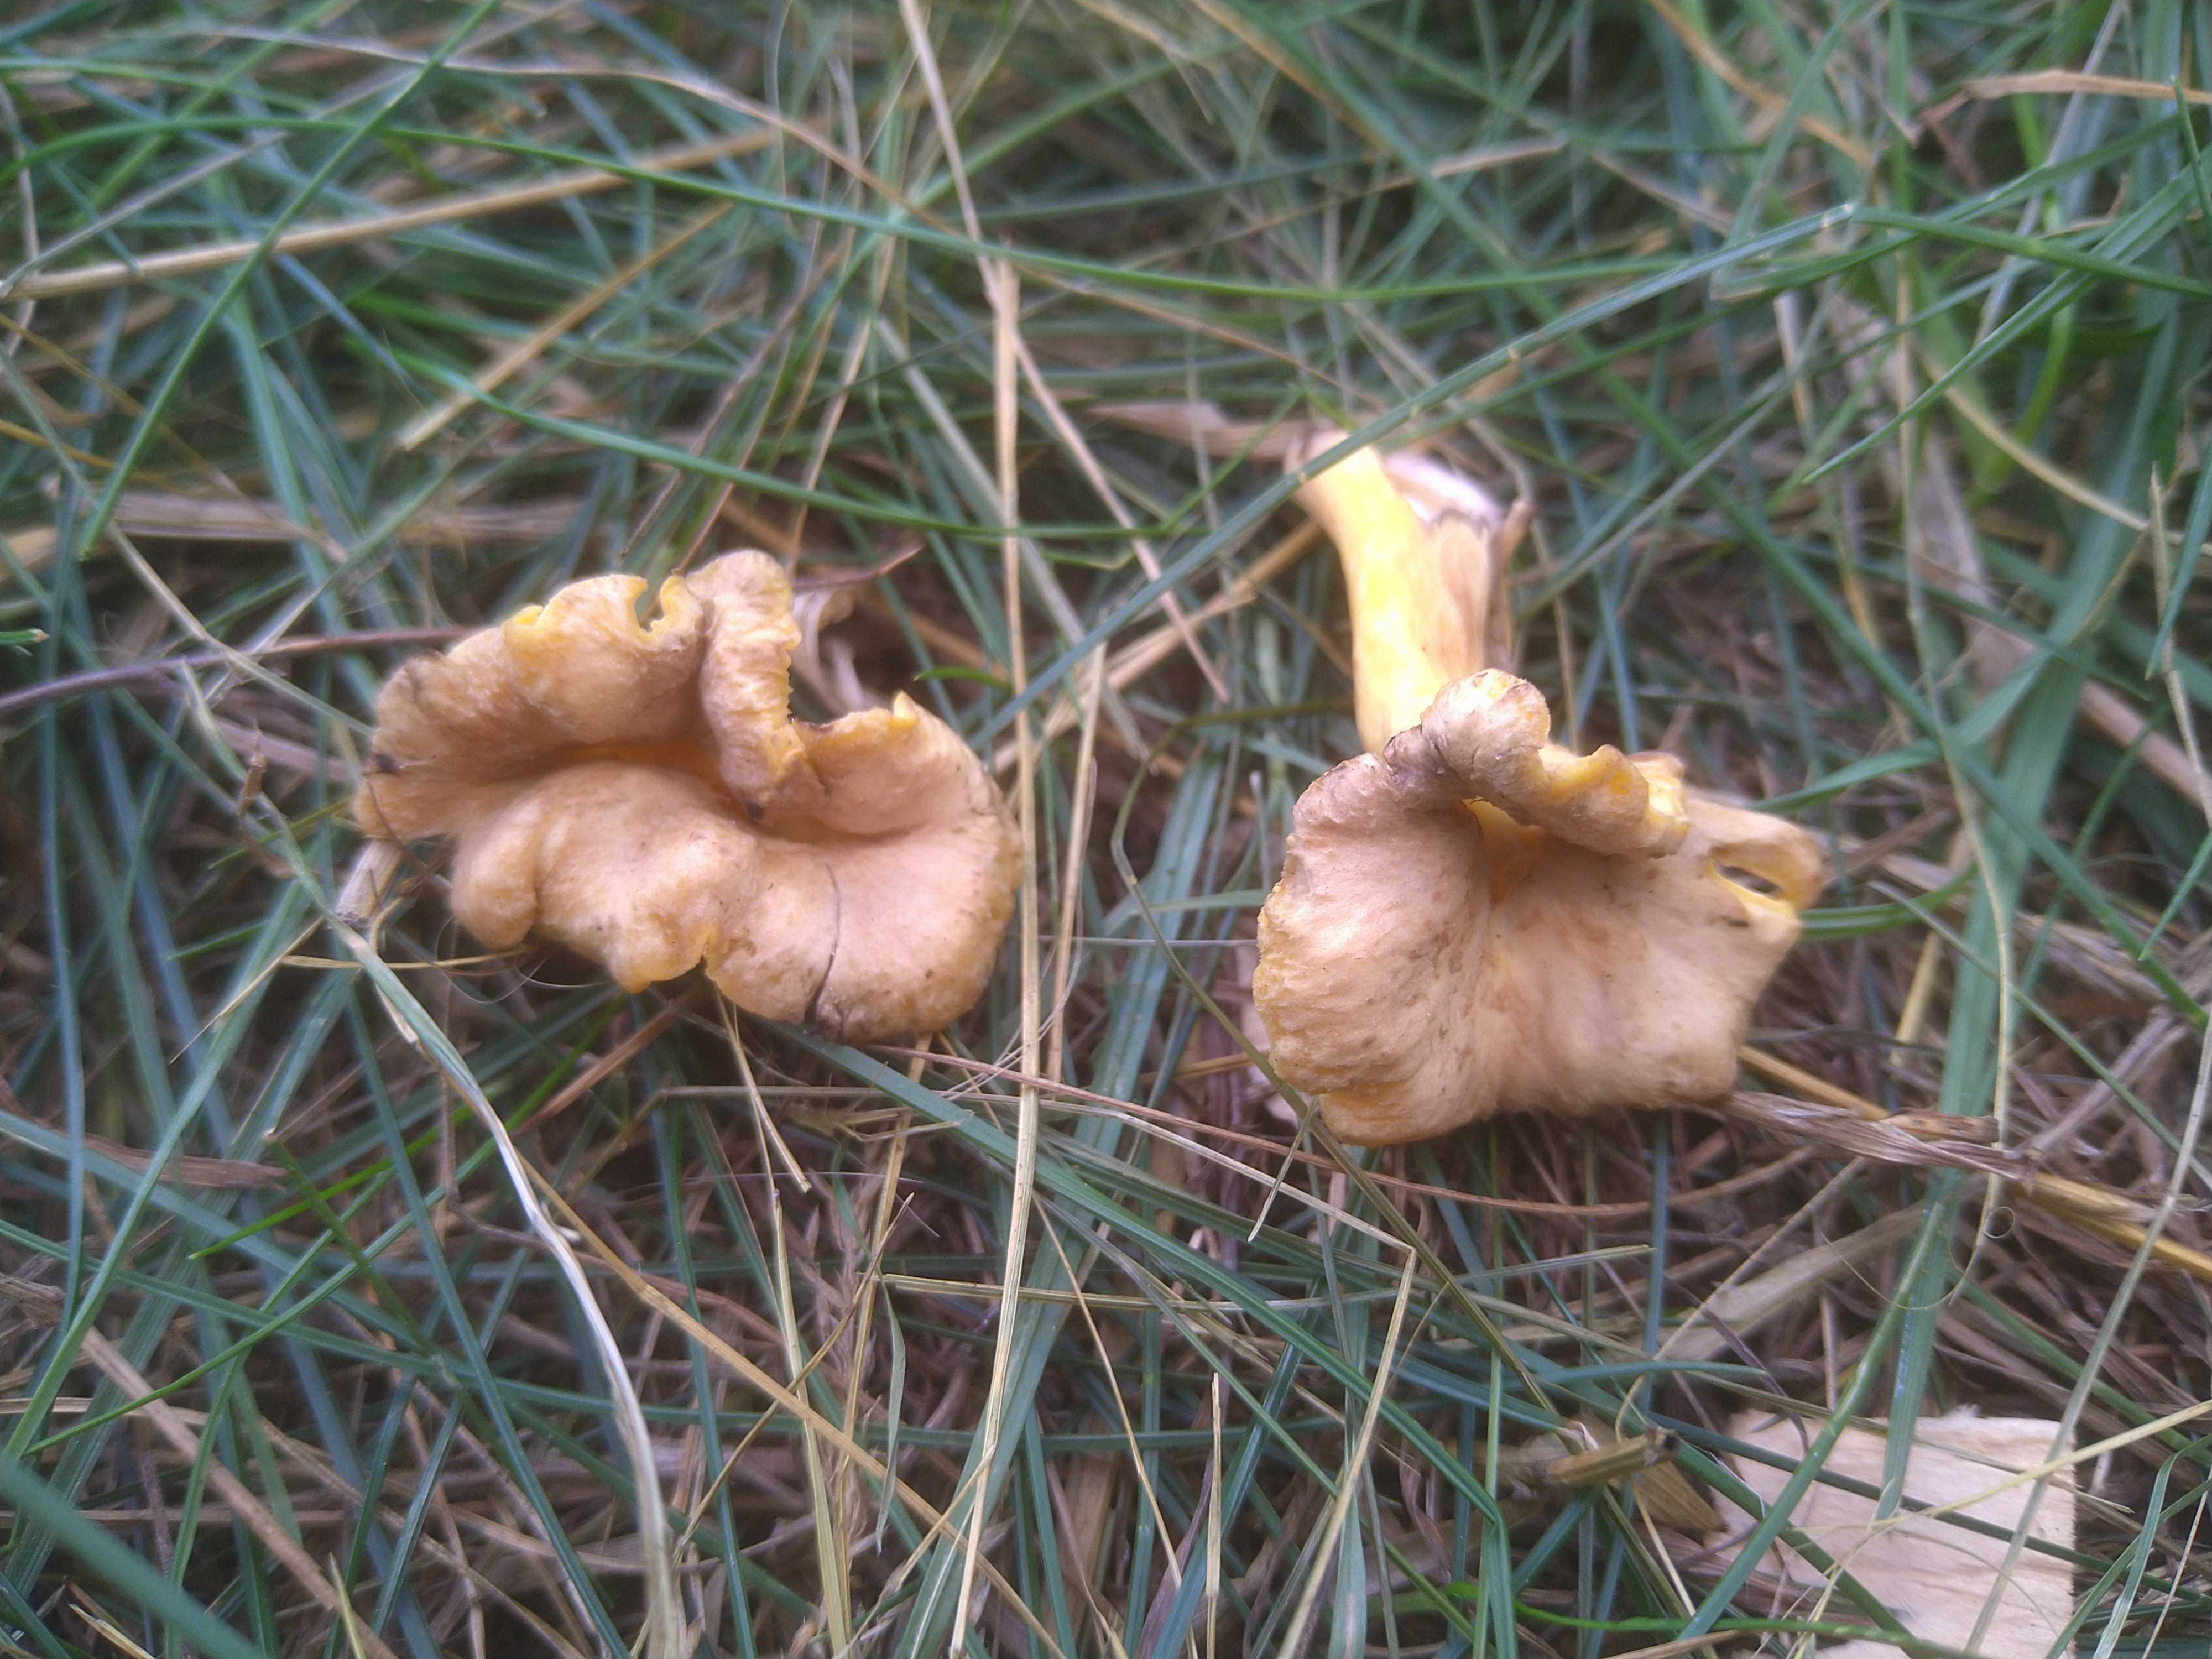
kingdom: Fungi
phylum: Basidiomycota
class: Agaricomycetes
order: Cantharellales
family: Hydnaceae
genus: Cantharellus
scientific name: Cantharellus melanoxeros
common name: sværtende kantarel
